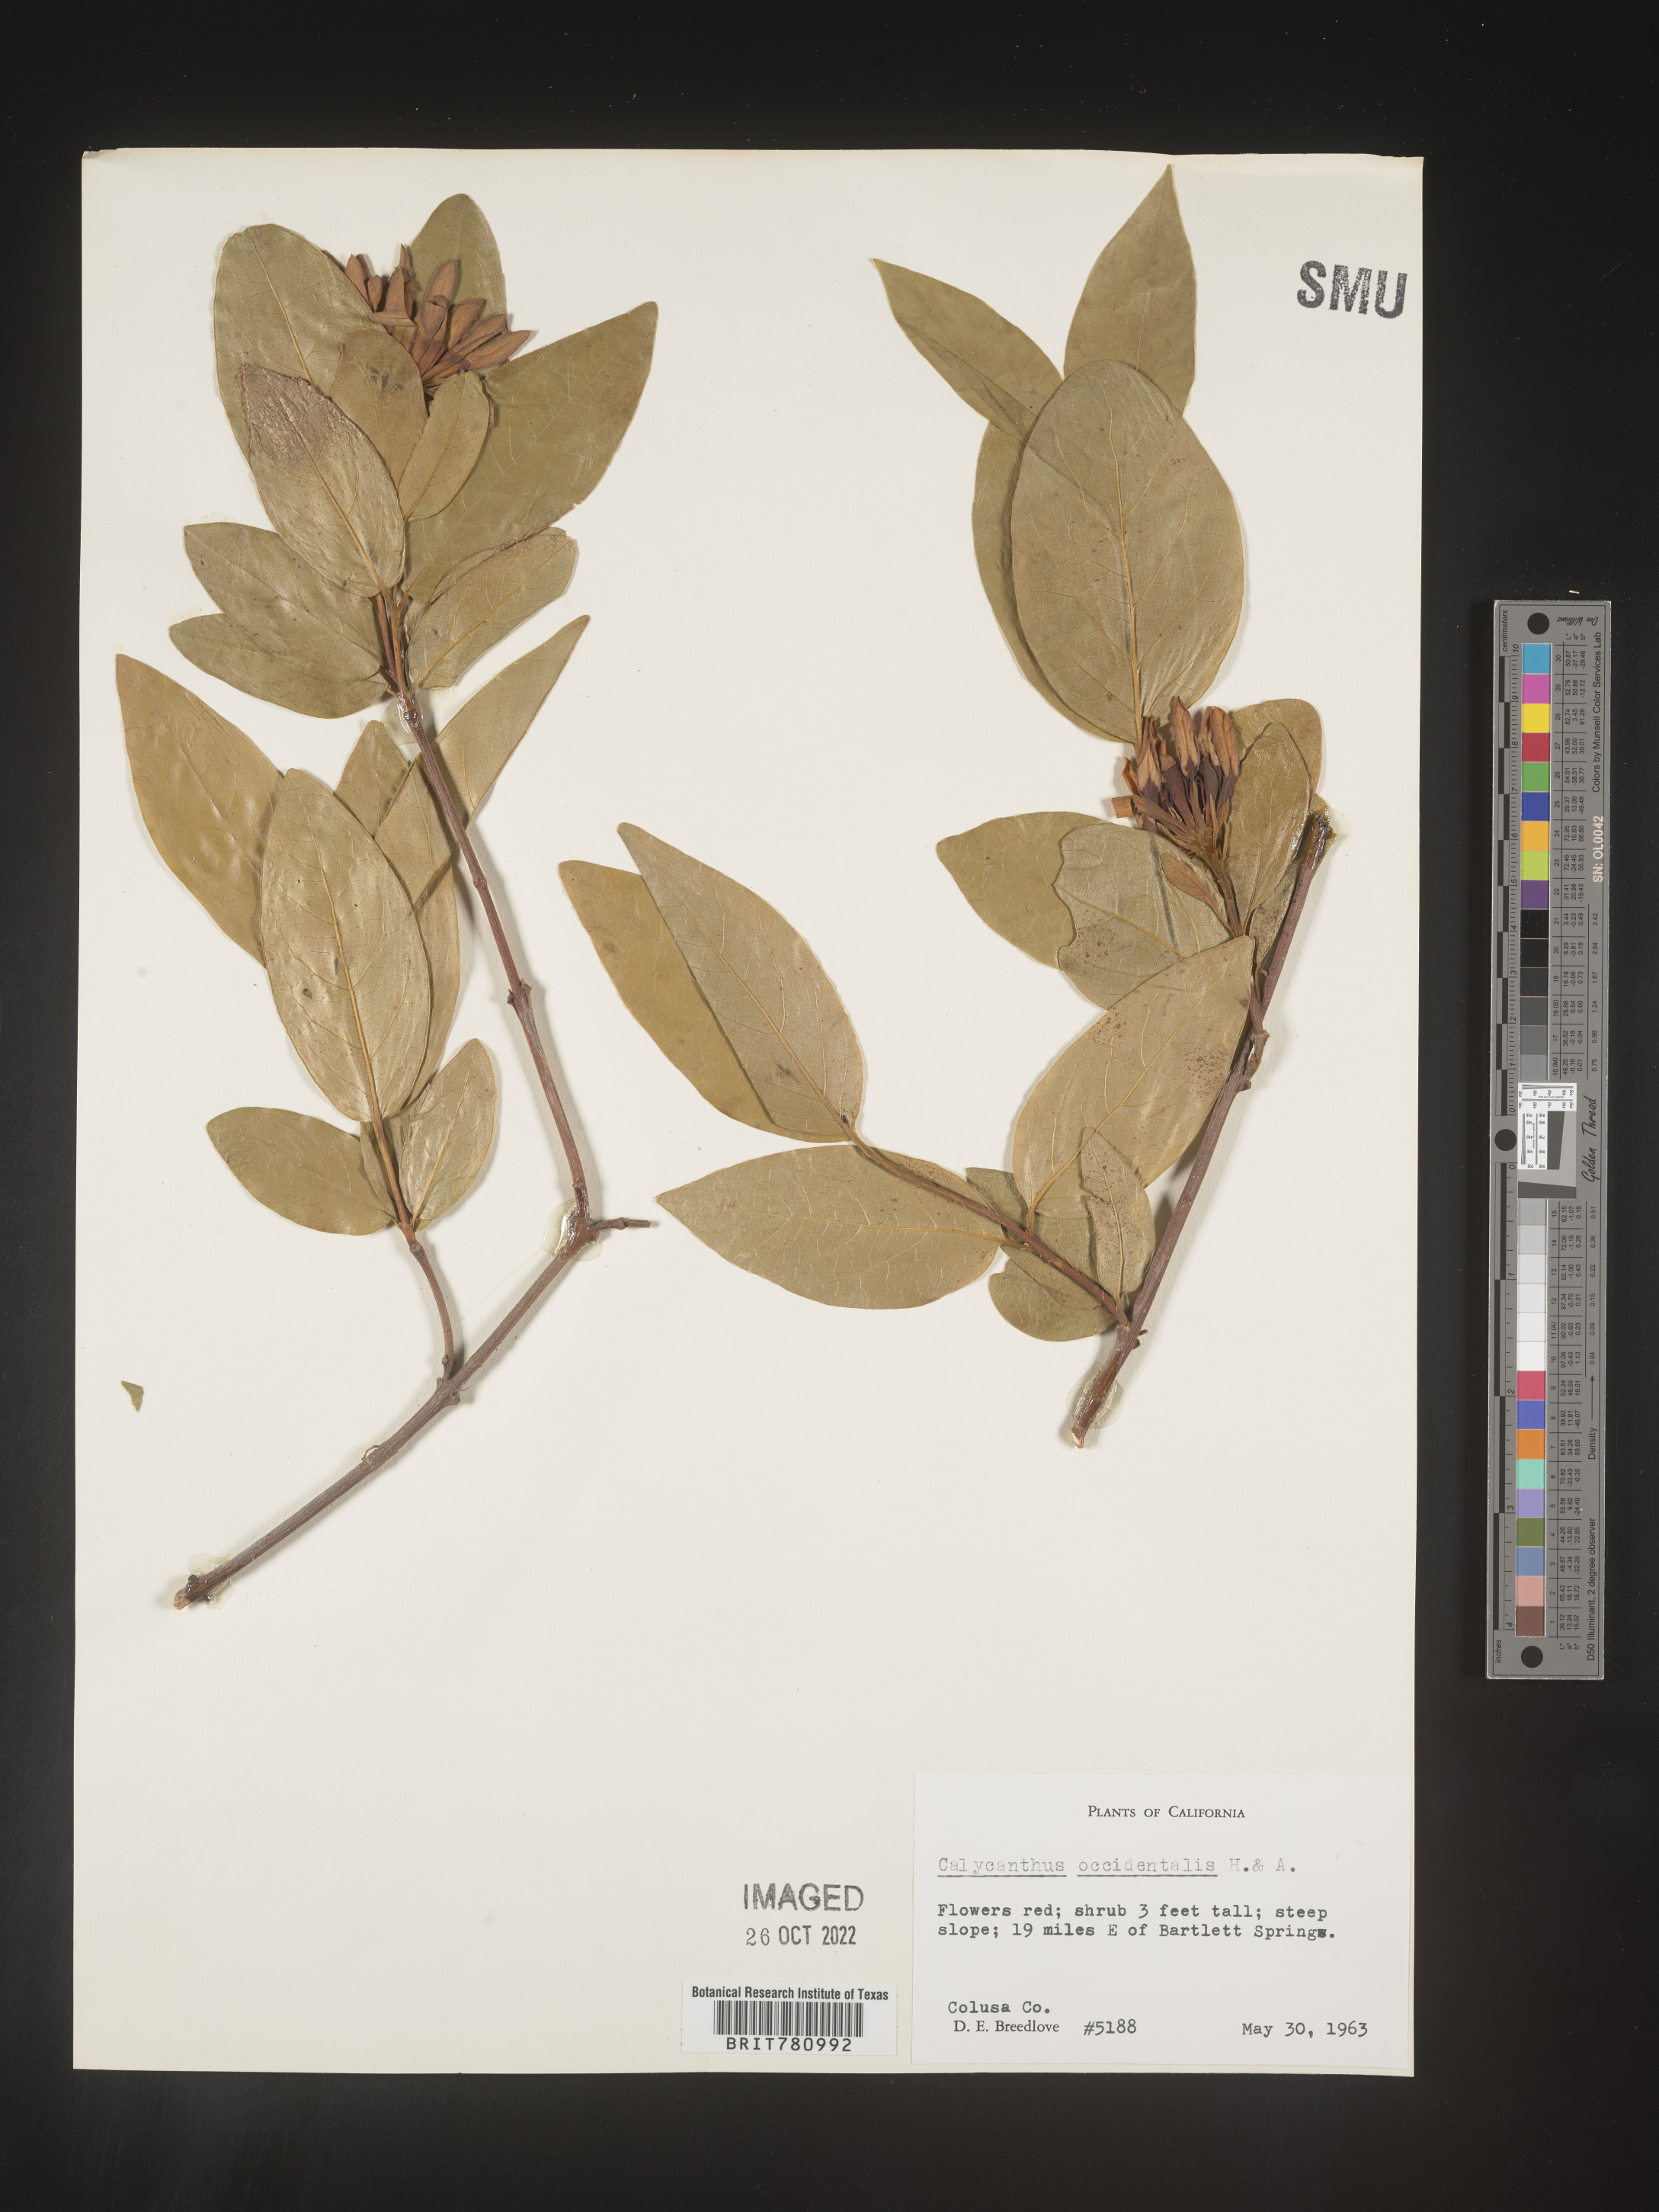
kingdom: Plantae
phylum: Tracheophyta
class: Magnoliopsida
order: Laurales
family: Calycanthaceae
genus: Calycanthus
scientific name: Calycanthus
